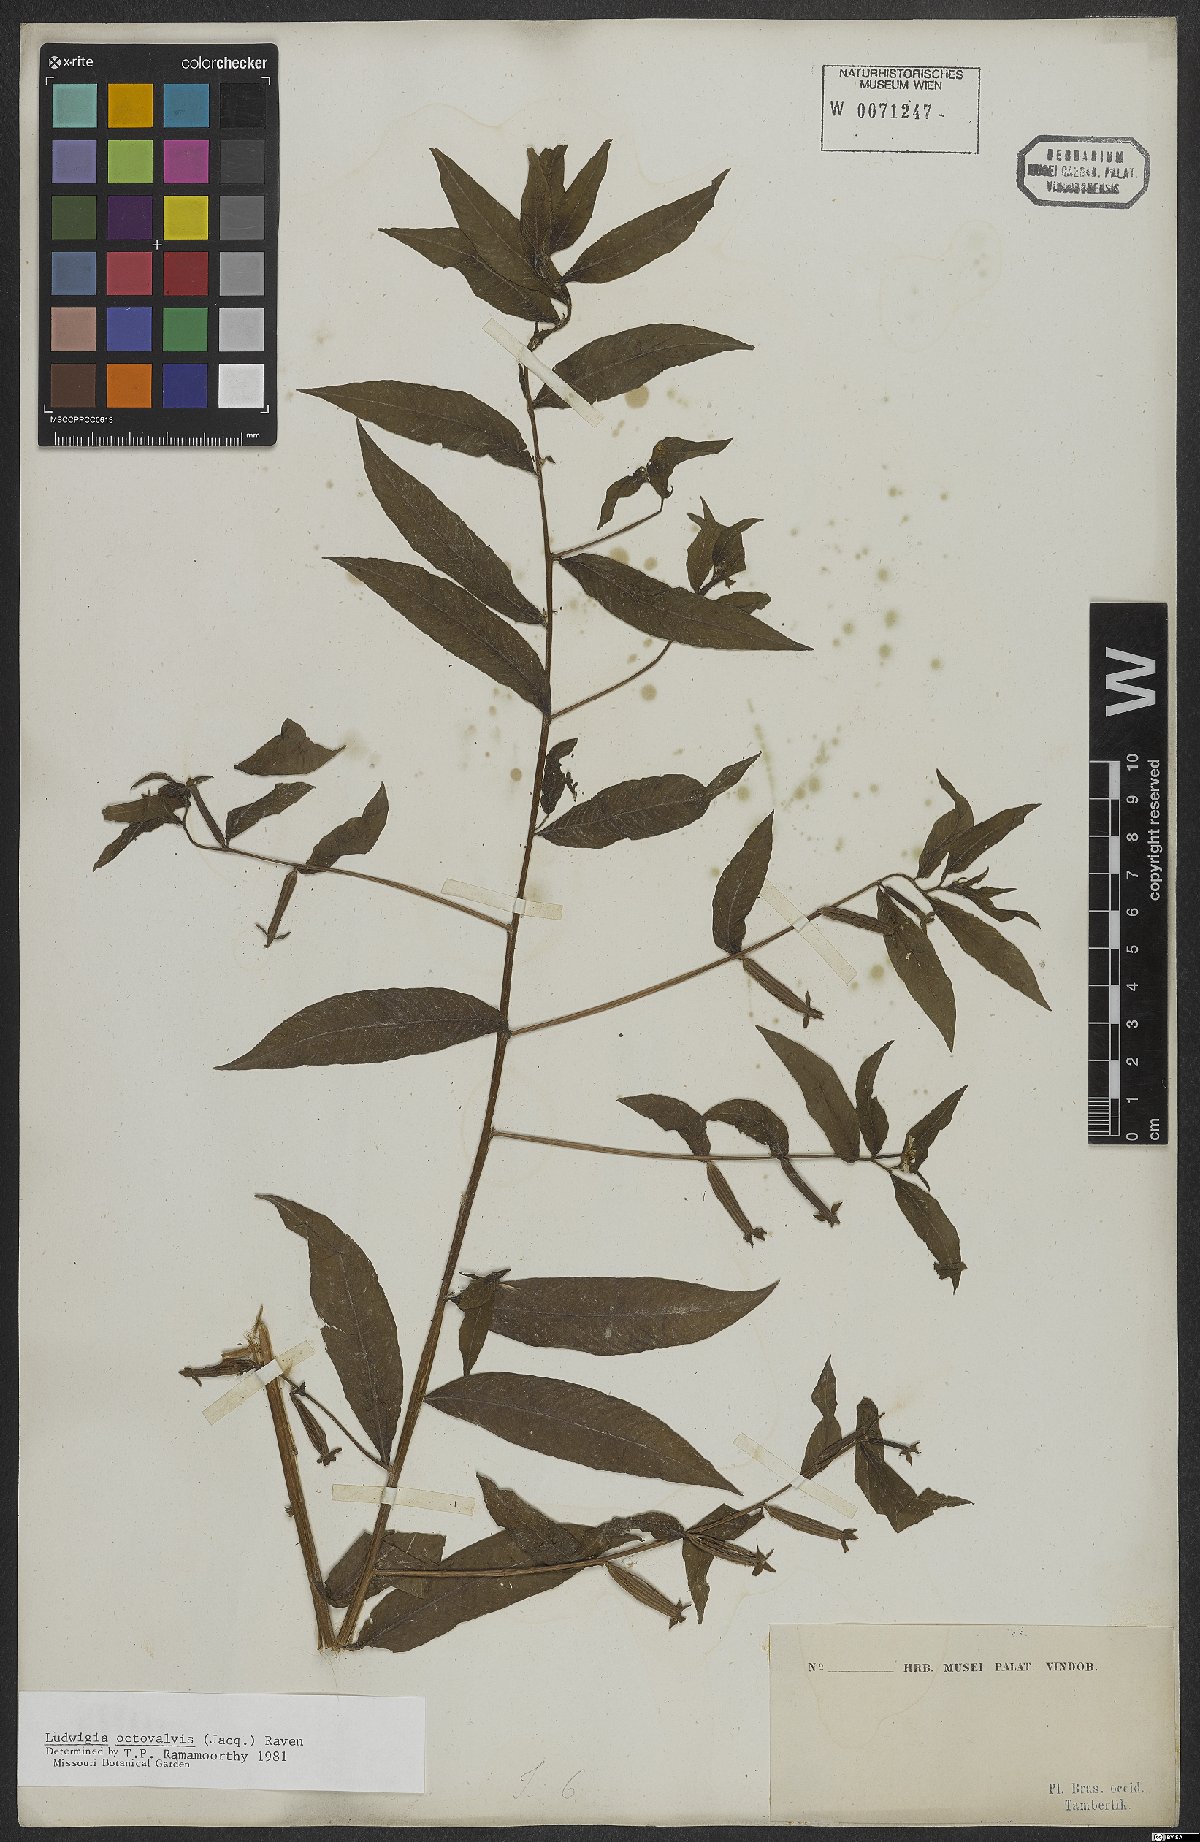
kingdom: Plantae
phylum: Tracheophyta
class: Magnoliopsida
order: Myrtales
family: Onagraceae
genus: Ludwigia
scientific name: Ludwigia octovalvis
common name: Water-primrose
